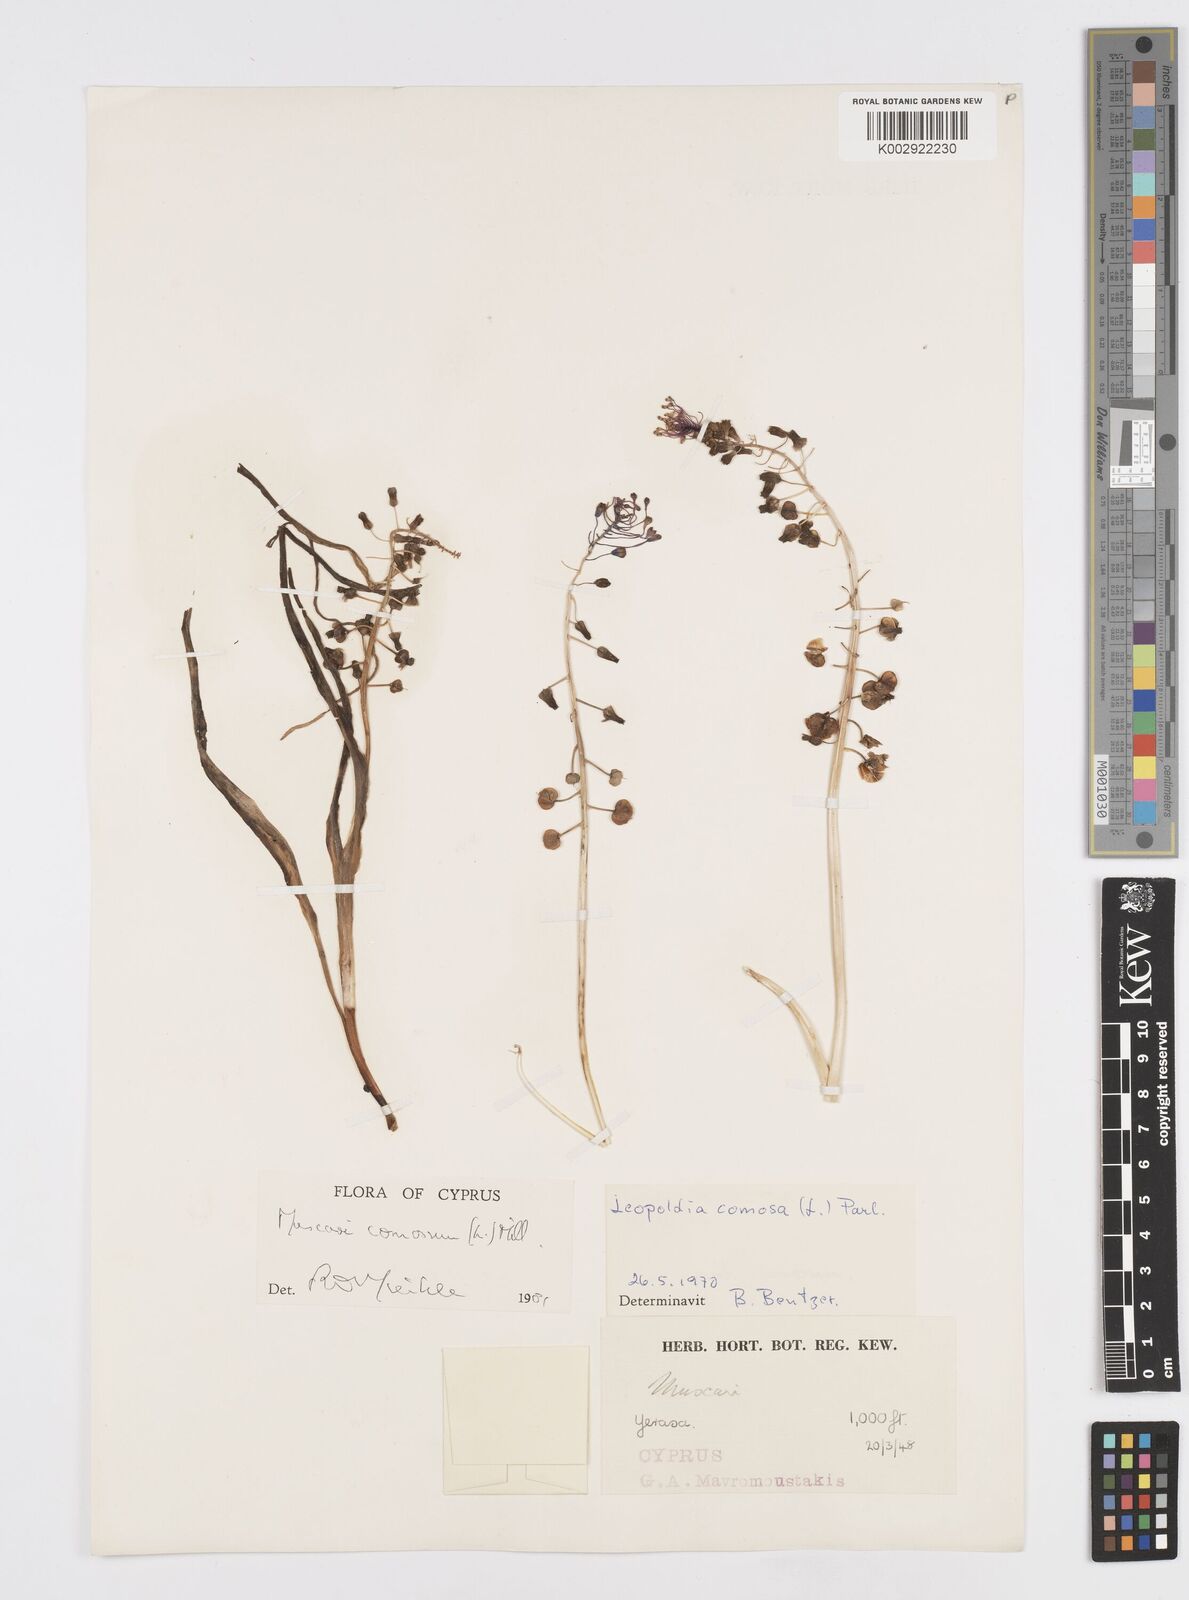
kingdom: Plantae
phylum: Tracheophyta
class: Liliopsida
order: Asparagales
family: Asparagaceae
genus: Muscari
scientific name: Muscari comosum
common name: Tassel hyacinth
